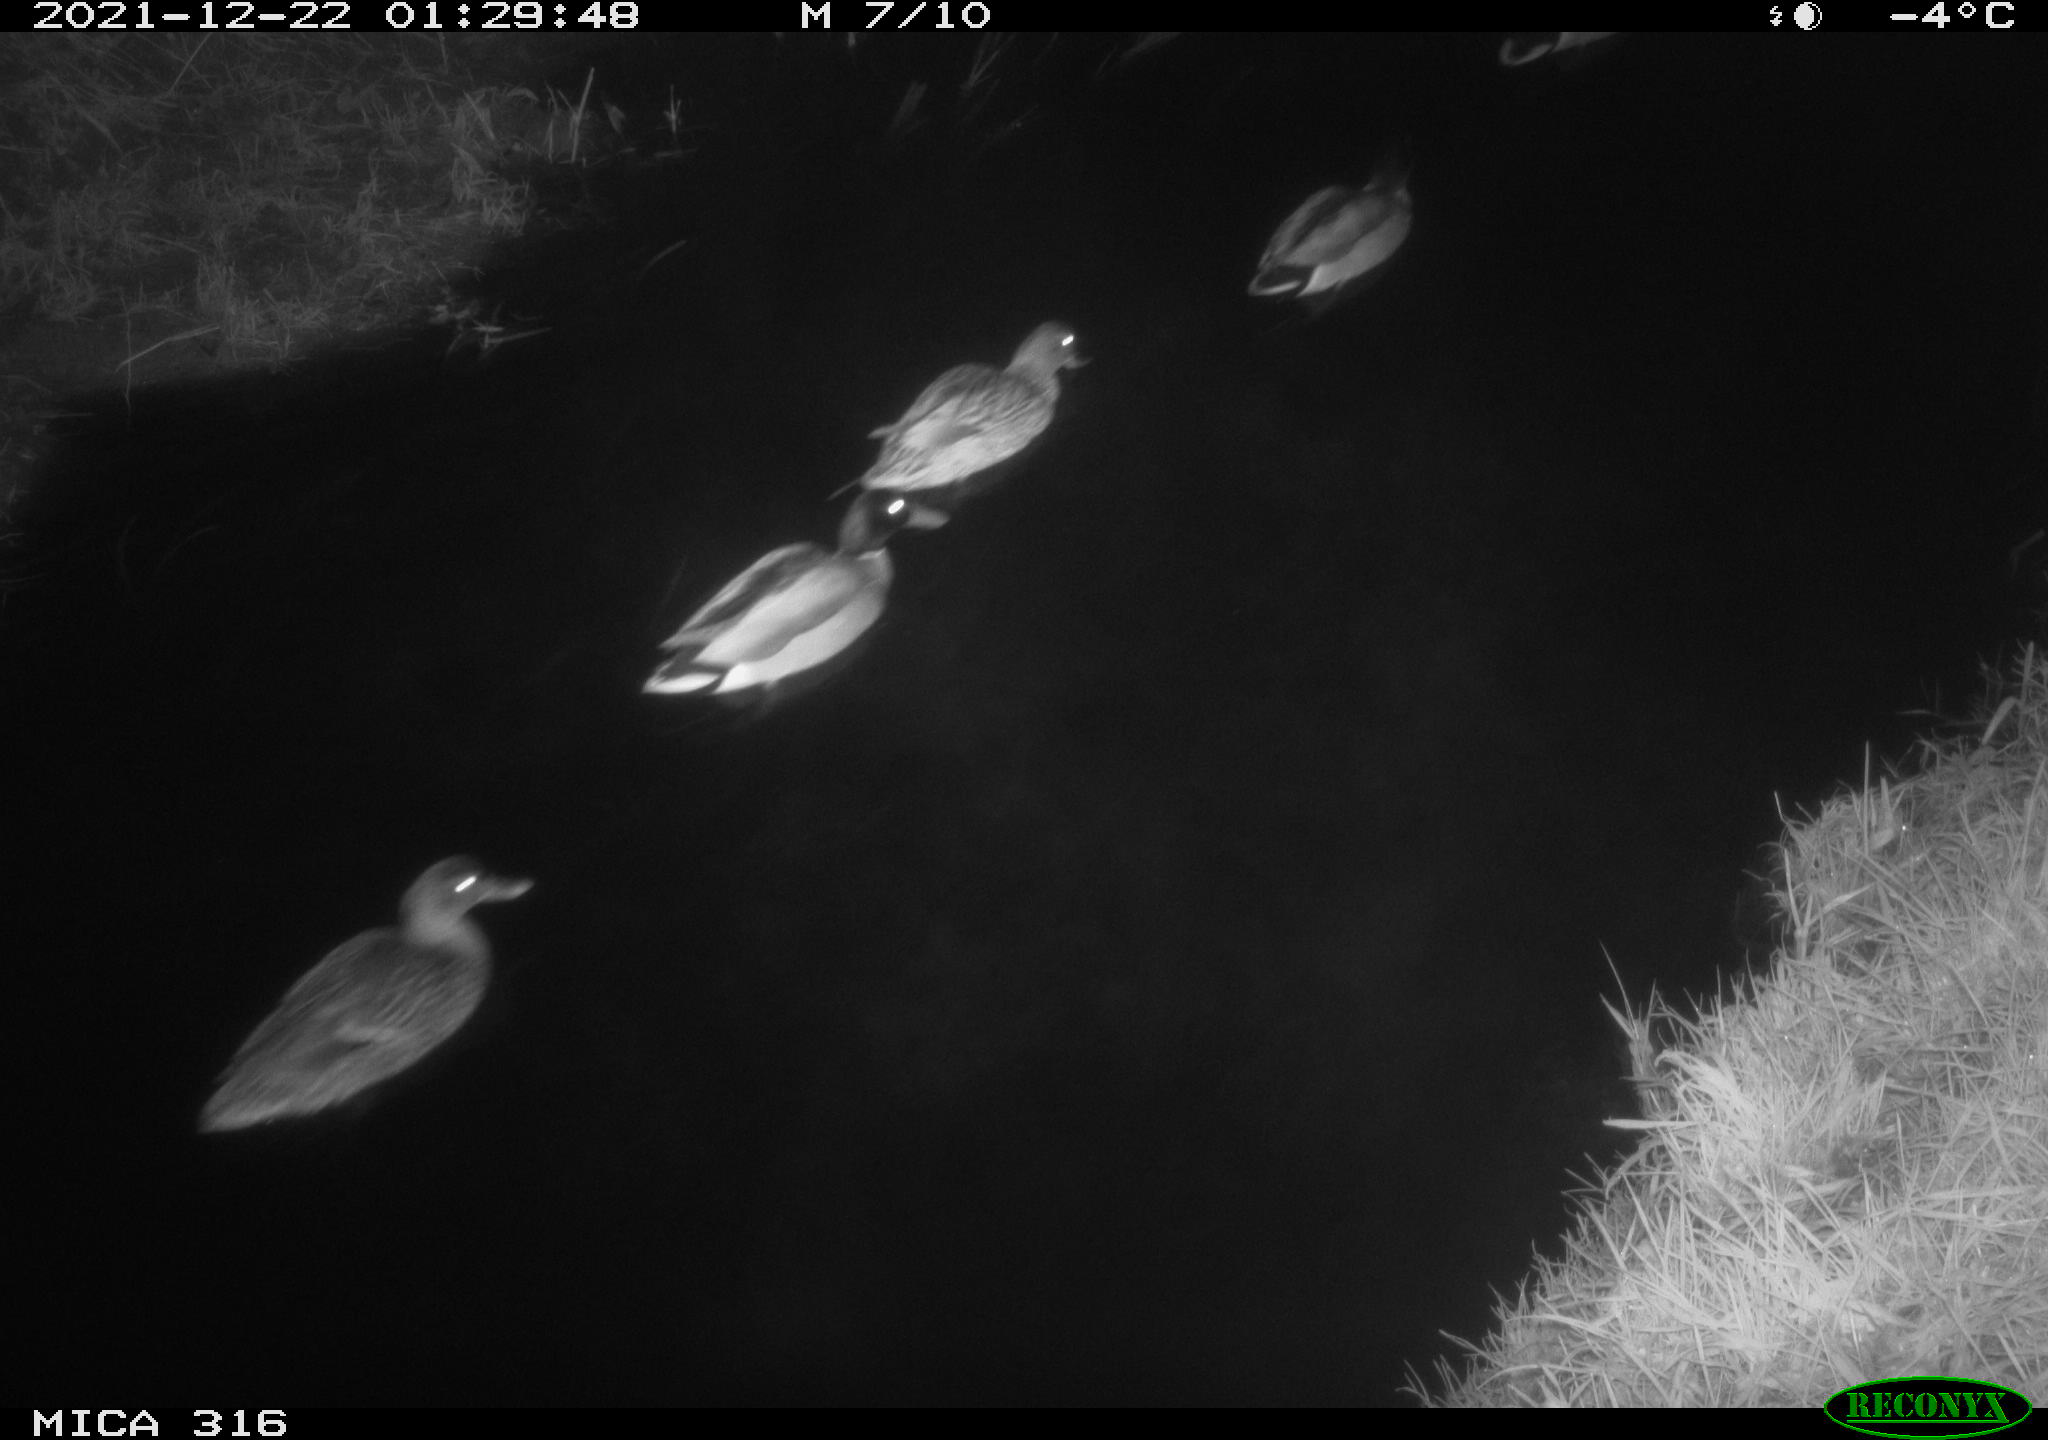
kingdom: Animalia
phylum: Chordata
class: Aves
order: Anseriformes
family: Anatidae
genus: Anas
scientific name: Anas
